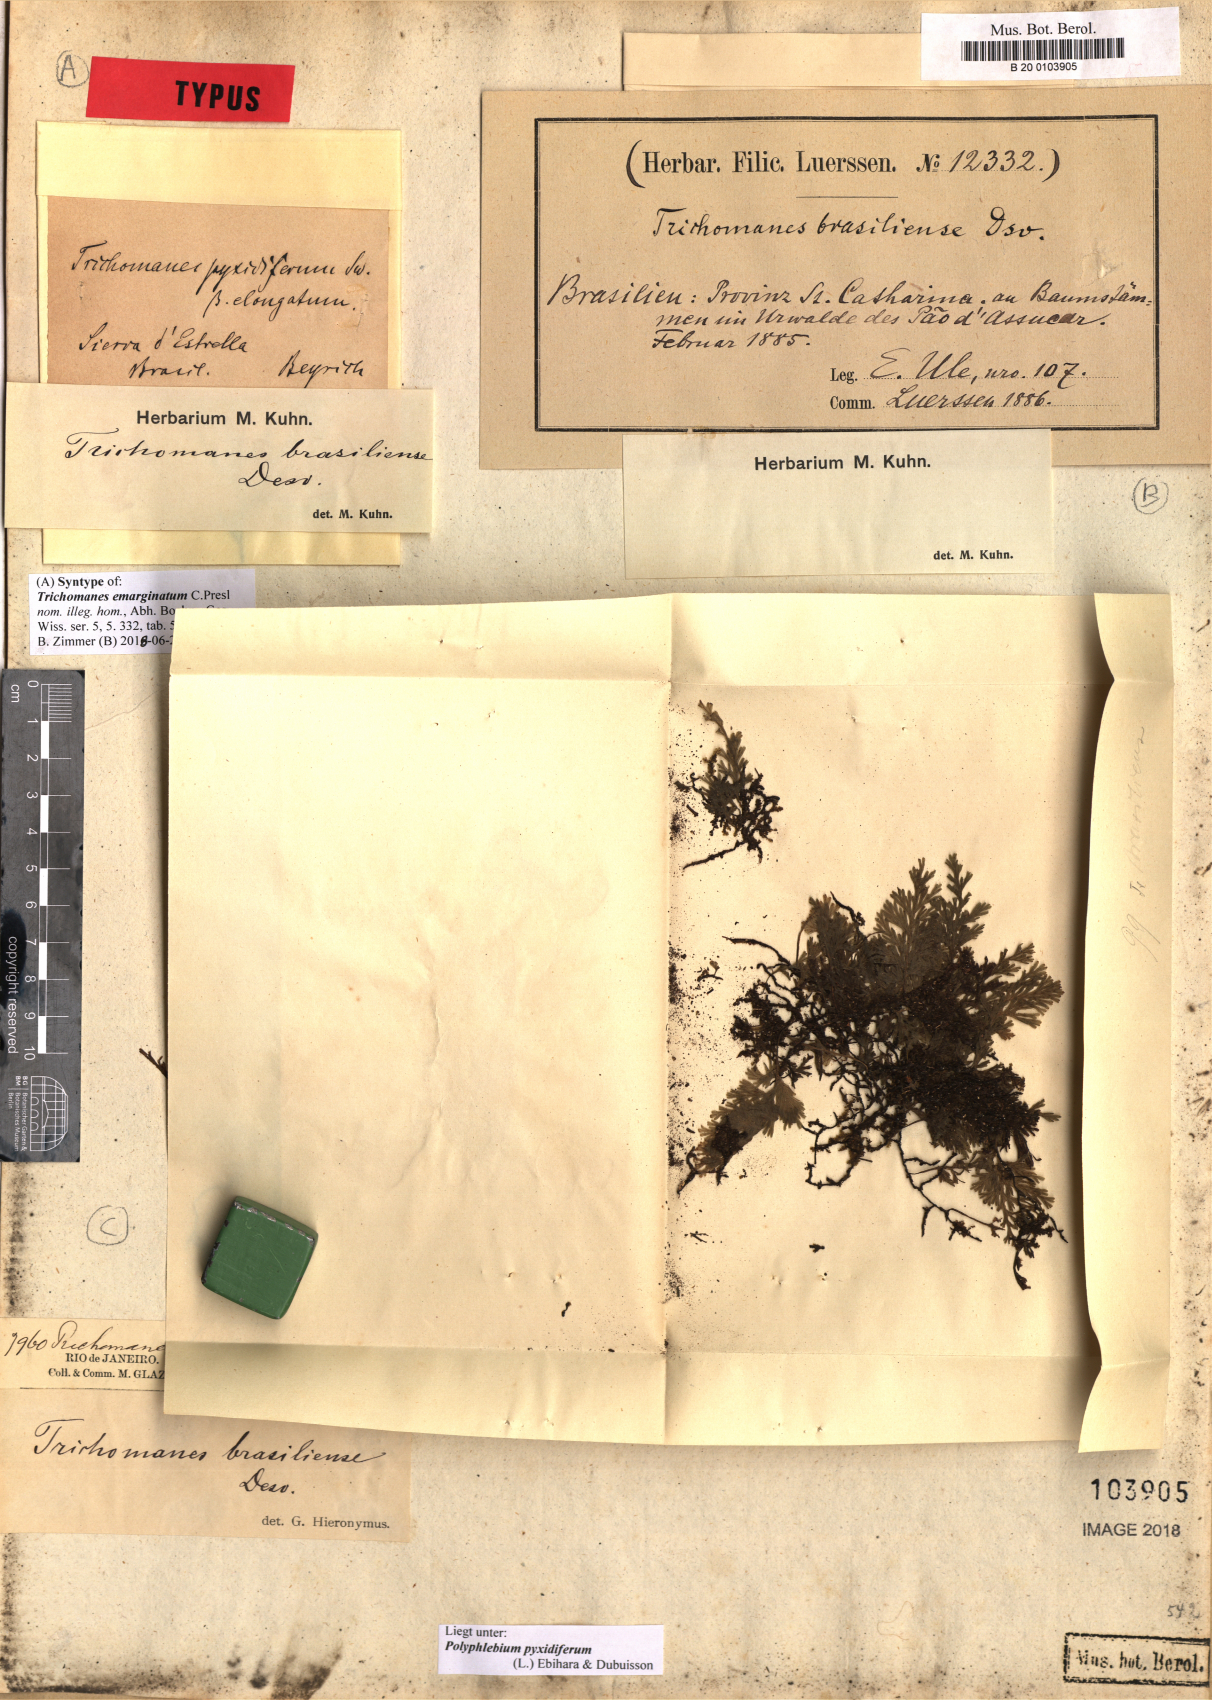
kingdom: Plantae
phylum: Tracheophyta
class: Polypodiopsida
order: Hymenophyllales
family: Hymenophyllaceae
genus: Polyphlebium
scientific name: Polyphlebium pyxidiferum
